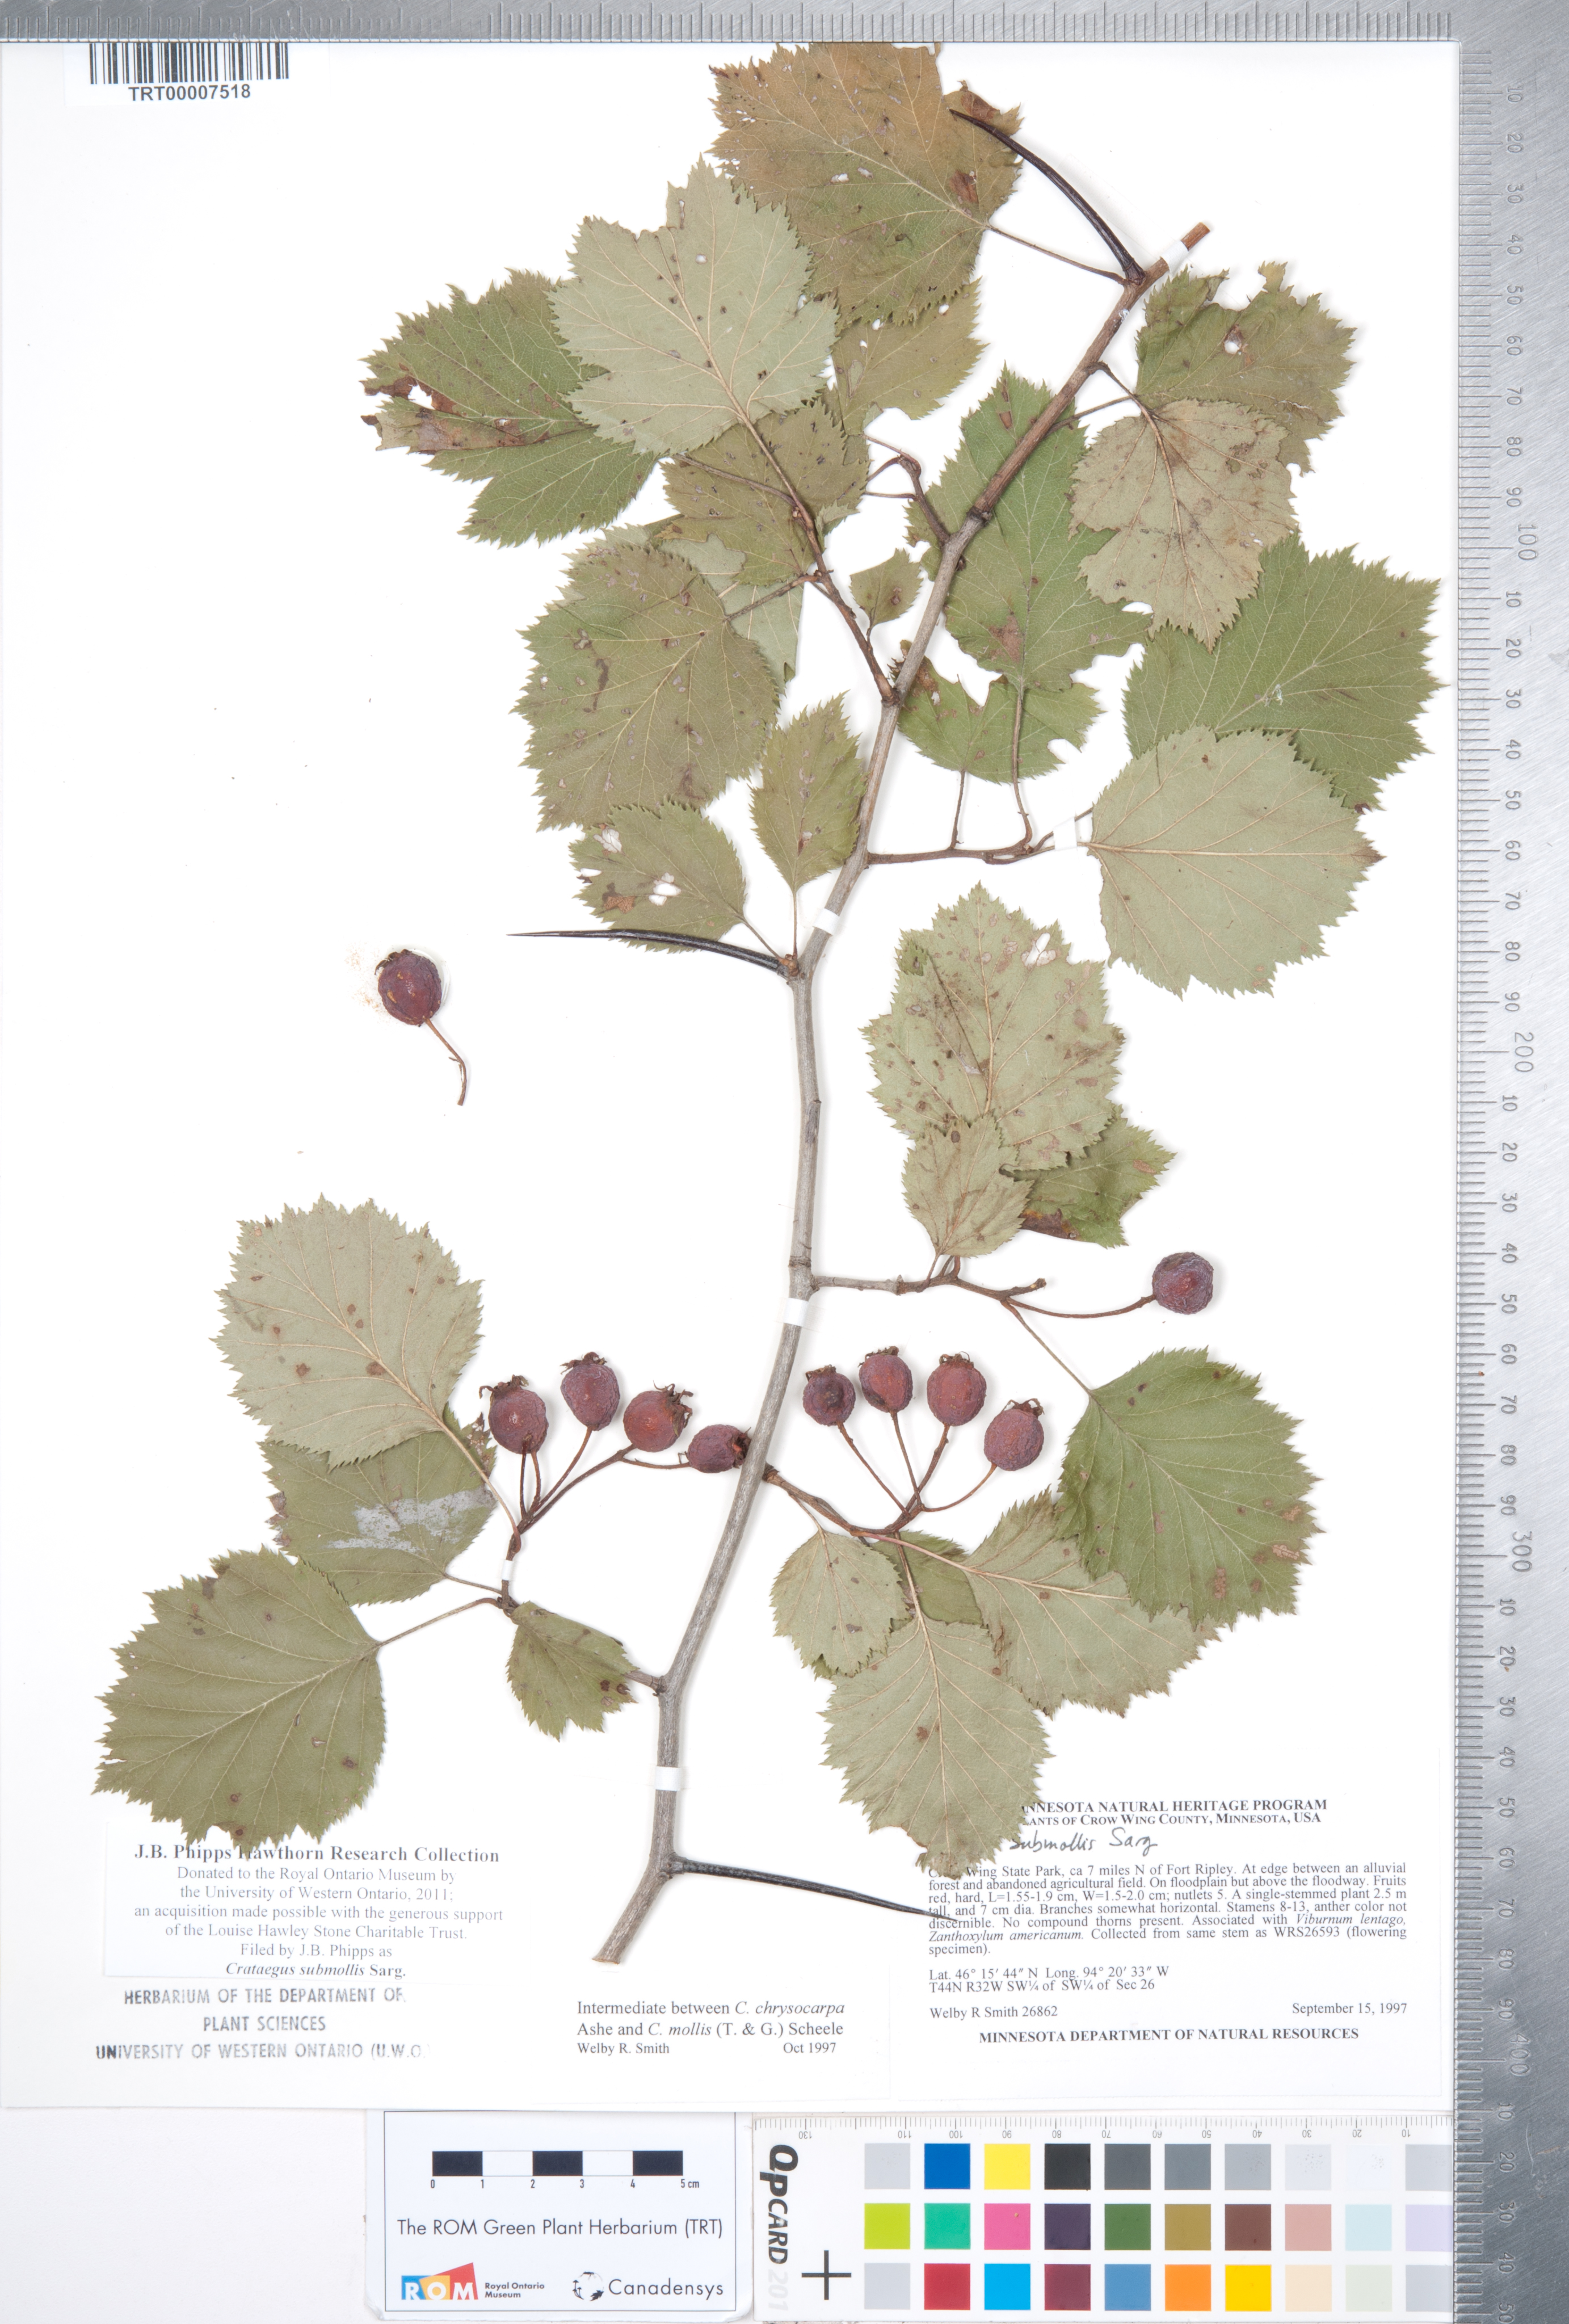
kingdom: Plantae
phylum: Tracheophyta
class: Magnoliopsida
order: Rosales
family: Rosaceae
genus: Crataegus
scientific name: Crataegus submollis
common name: Hairy cockspurthorn
